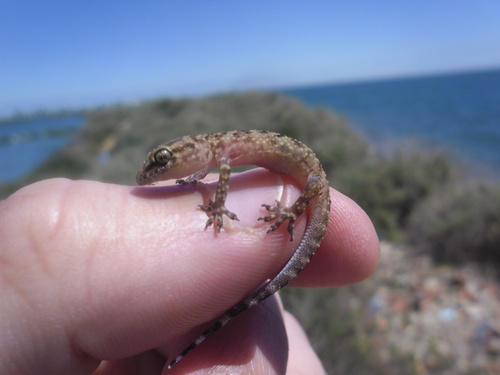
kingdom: Animalia
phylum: Chordata
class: Squamata
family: Gekkonidae
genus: Hemidactylus
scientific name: Hemidactylus turcicus
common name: Turkish gecko
